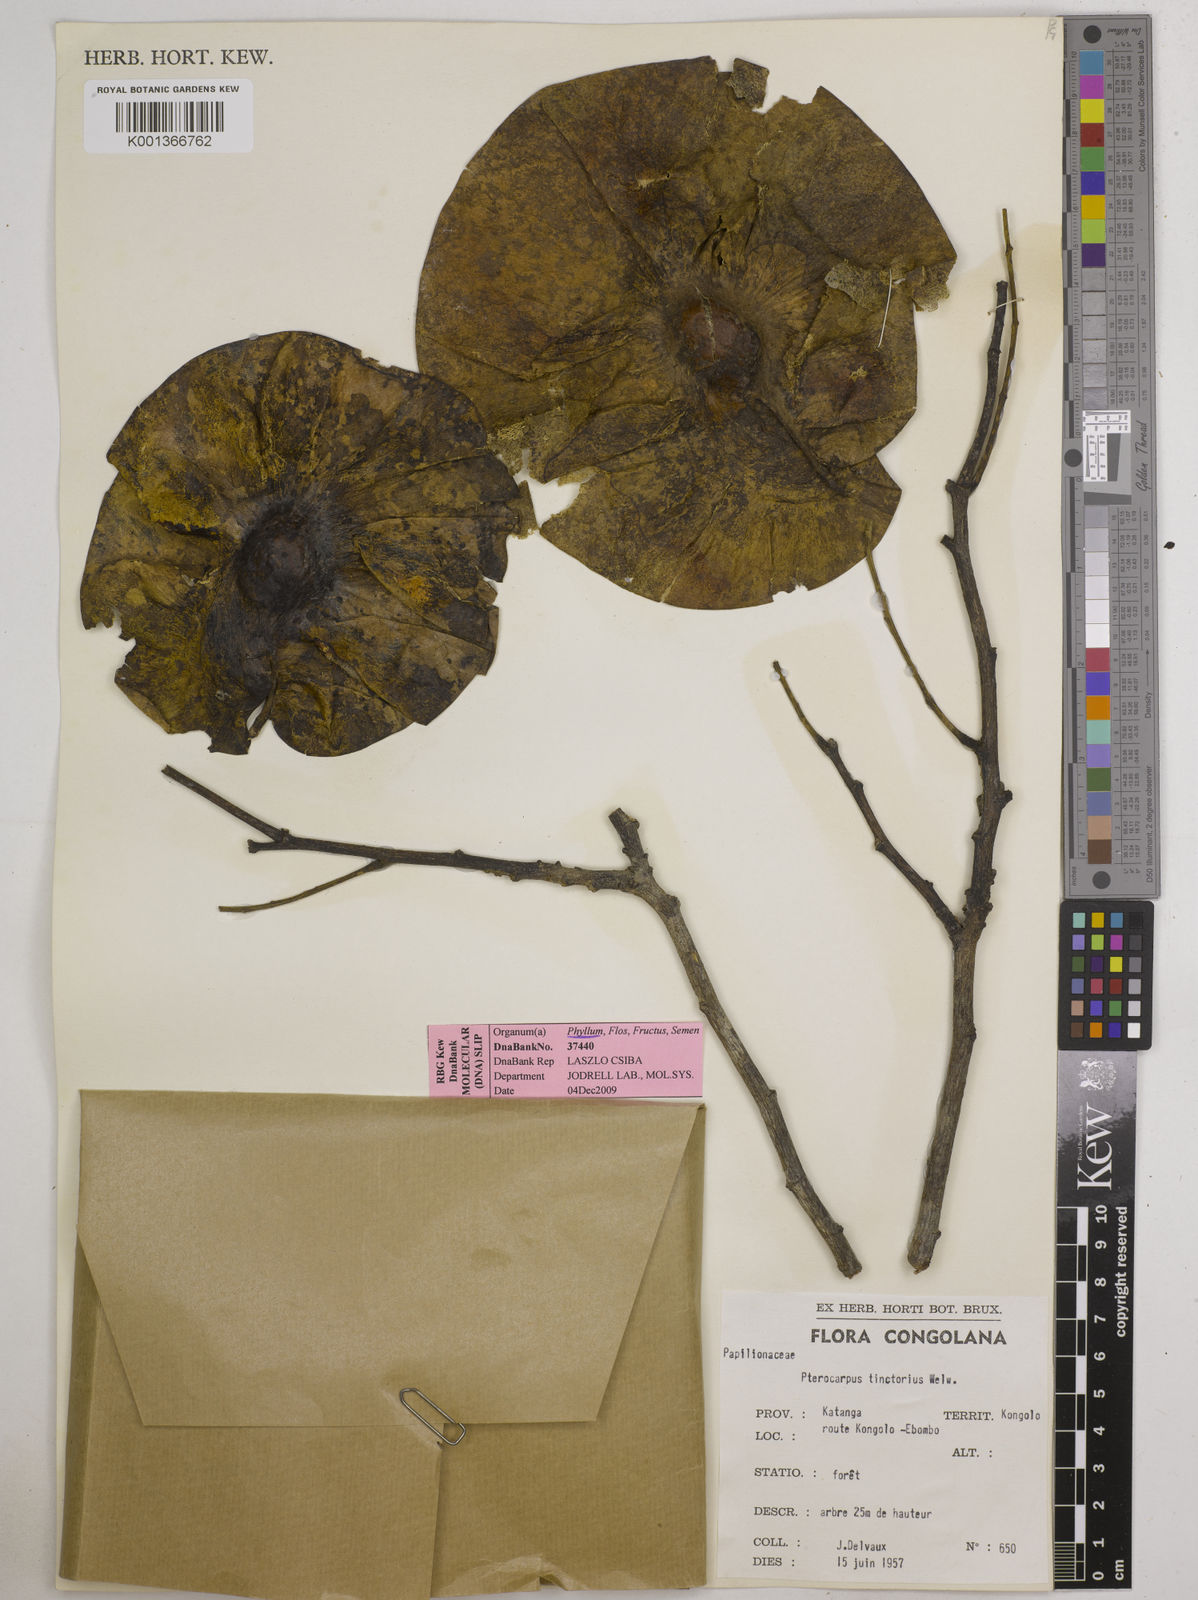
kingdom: Plantae
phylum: Tracheophyta
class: Magnoliopsida
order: Fabales
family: Fabaceae
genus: Pterocarpus
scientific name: Pterocarpus tinctorius
